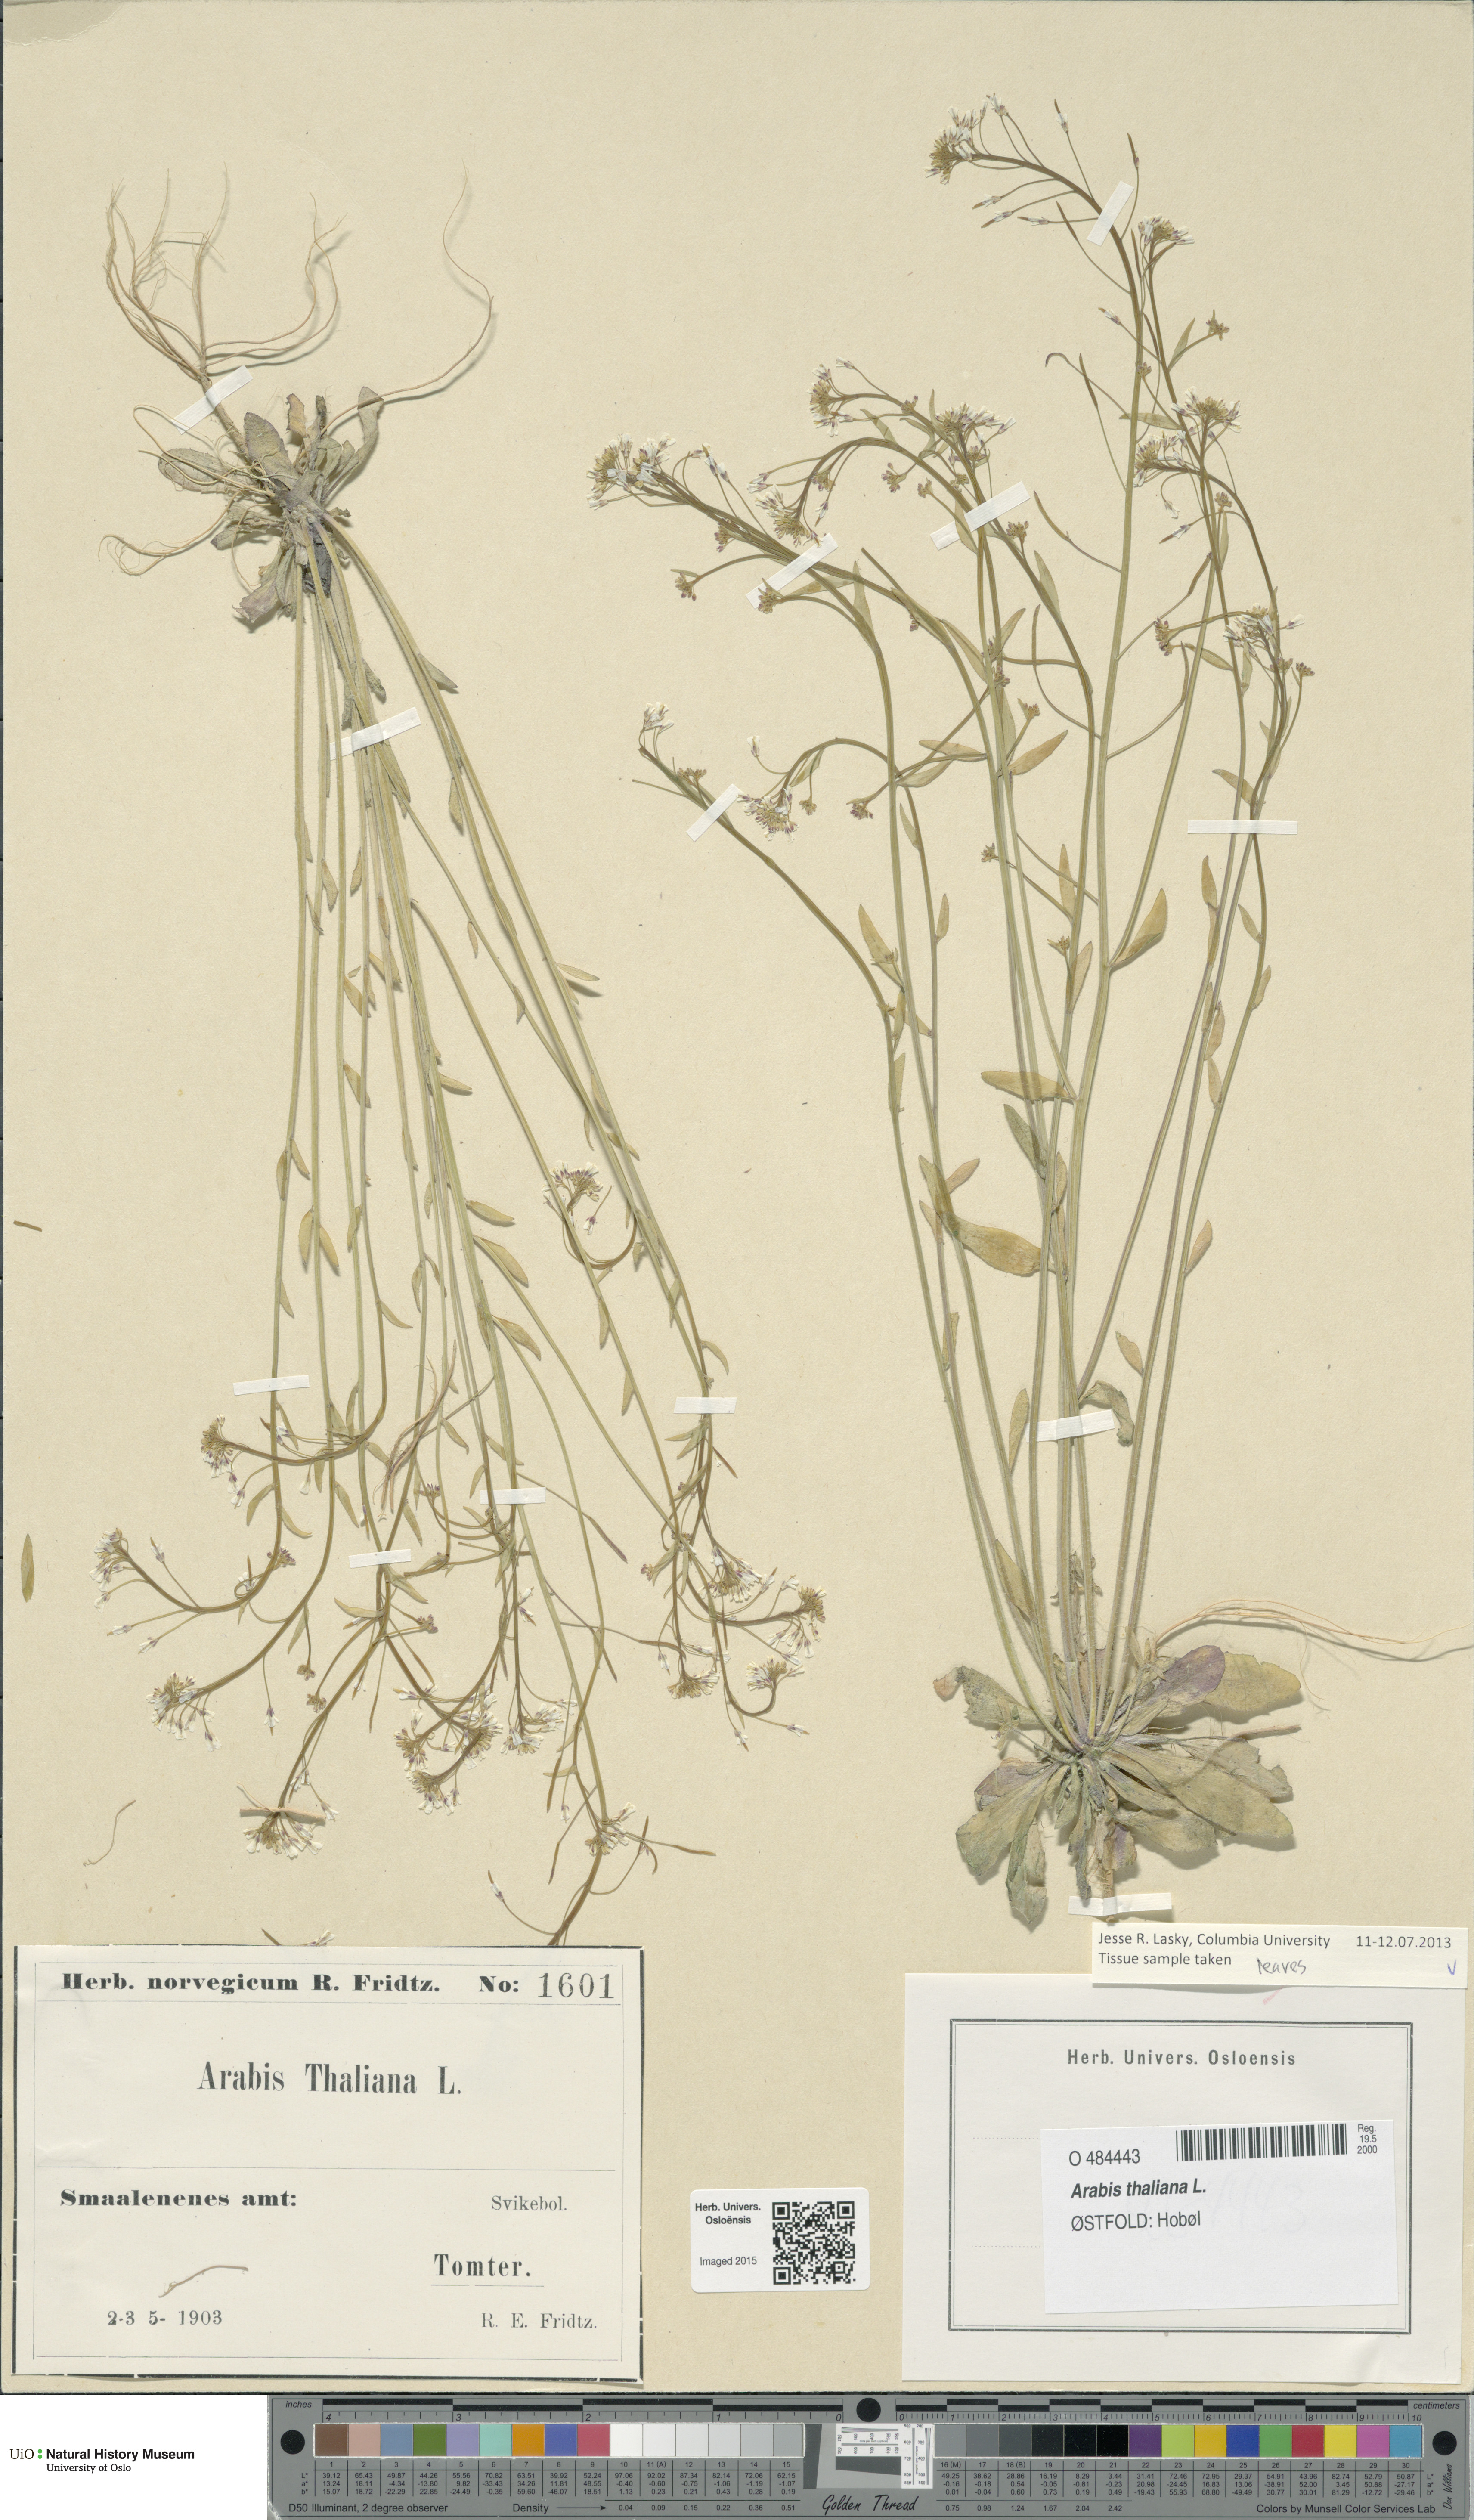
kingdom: Plantae
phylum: Tracheophyta
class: Magnoliopsida
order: Brassicales
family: Brassicaceae
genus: Arabidopsis
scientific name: Arabidopsis thaliana
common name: Thale cress
